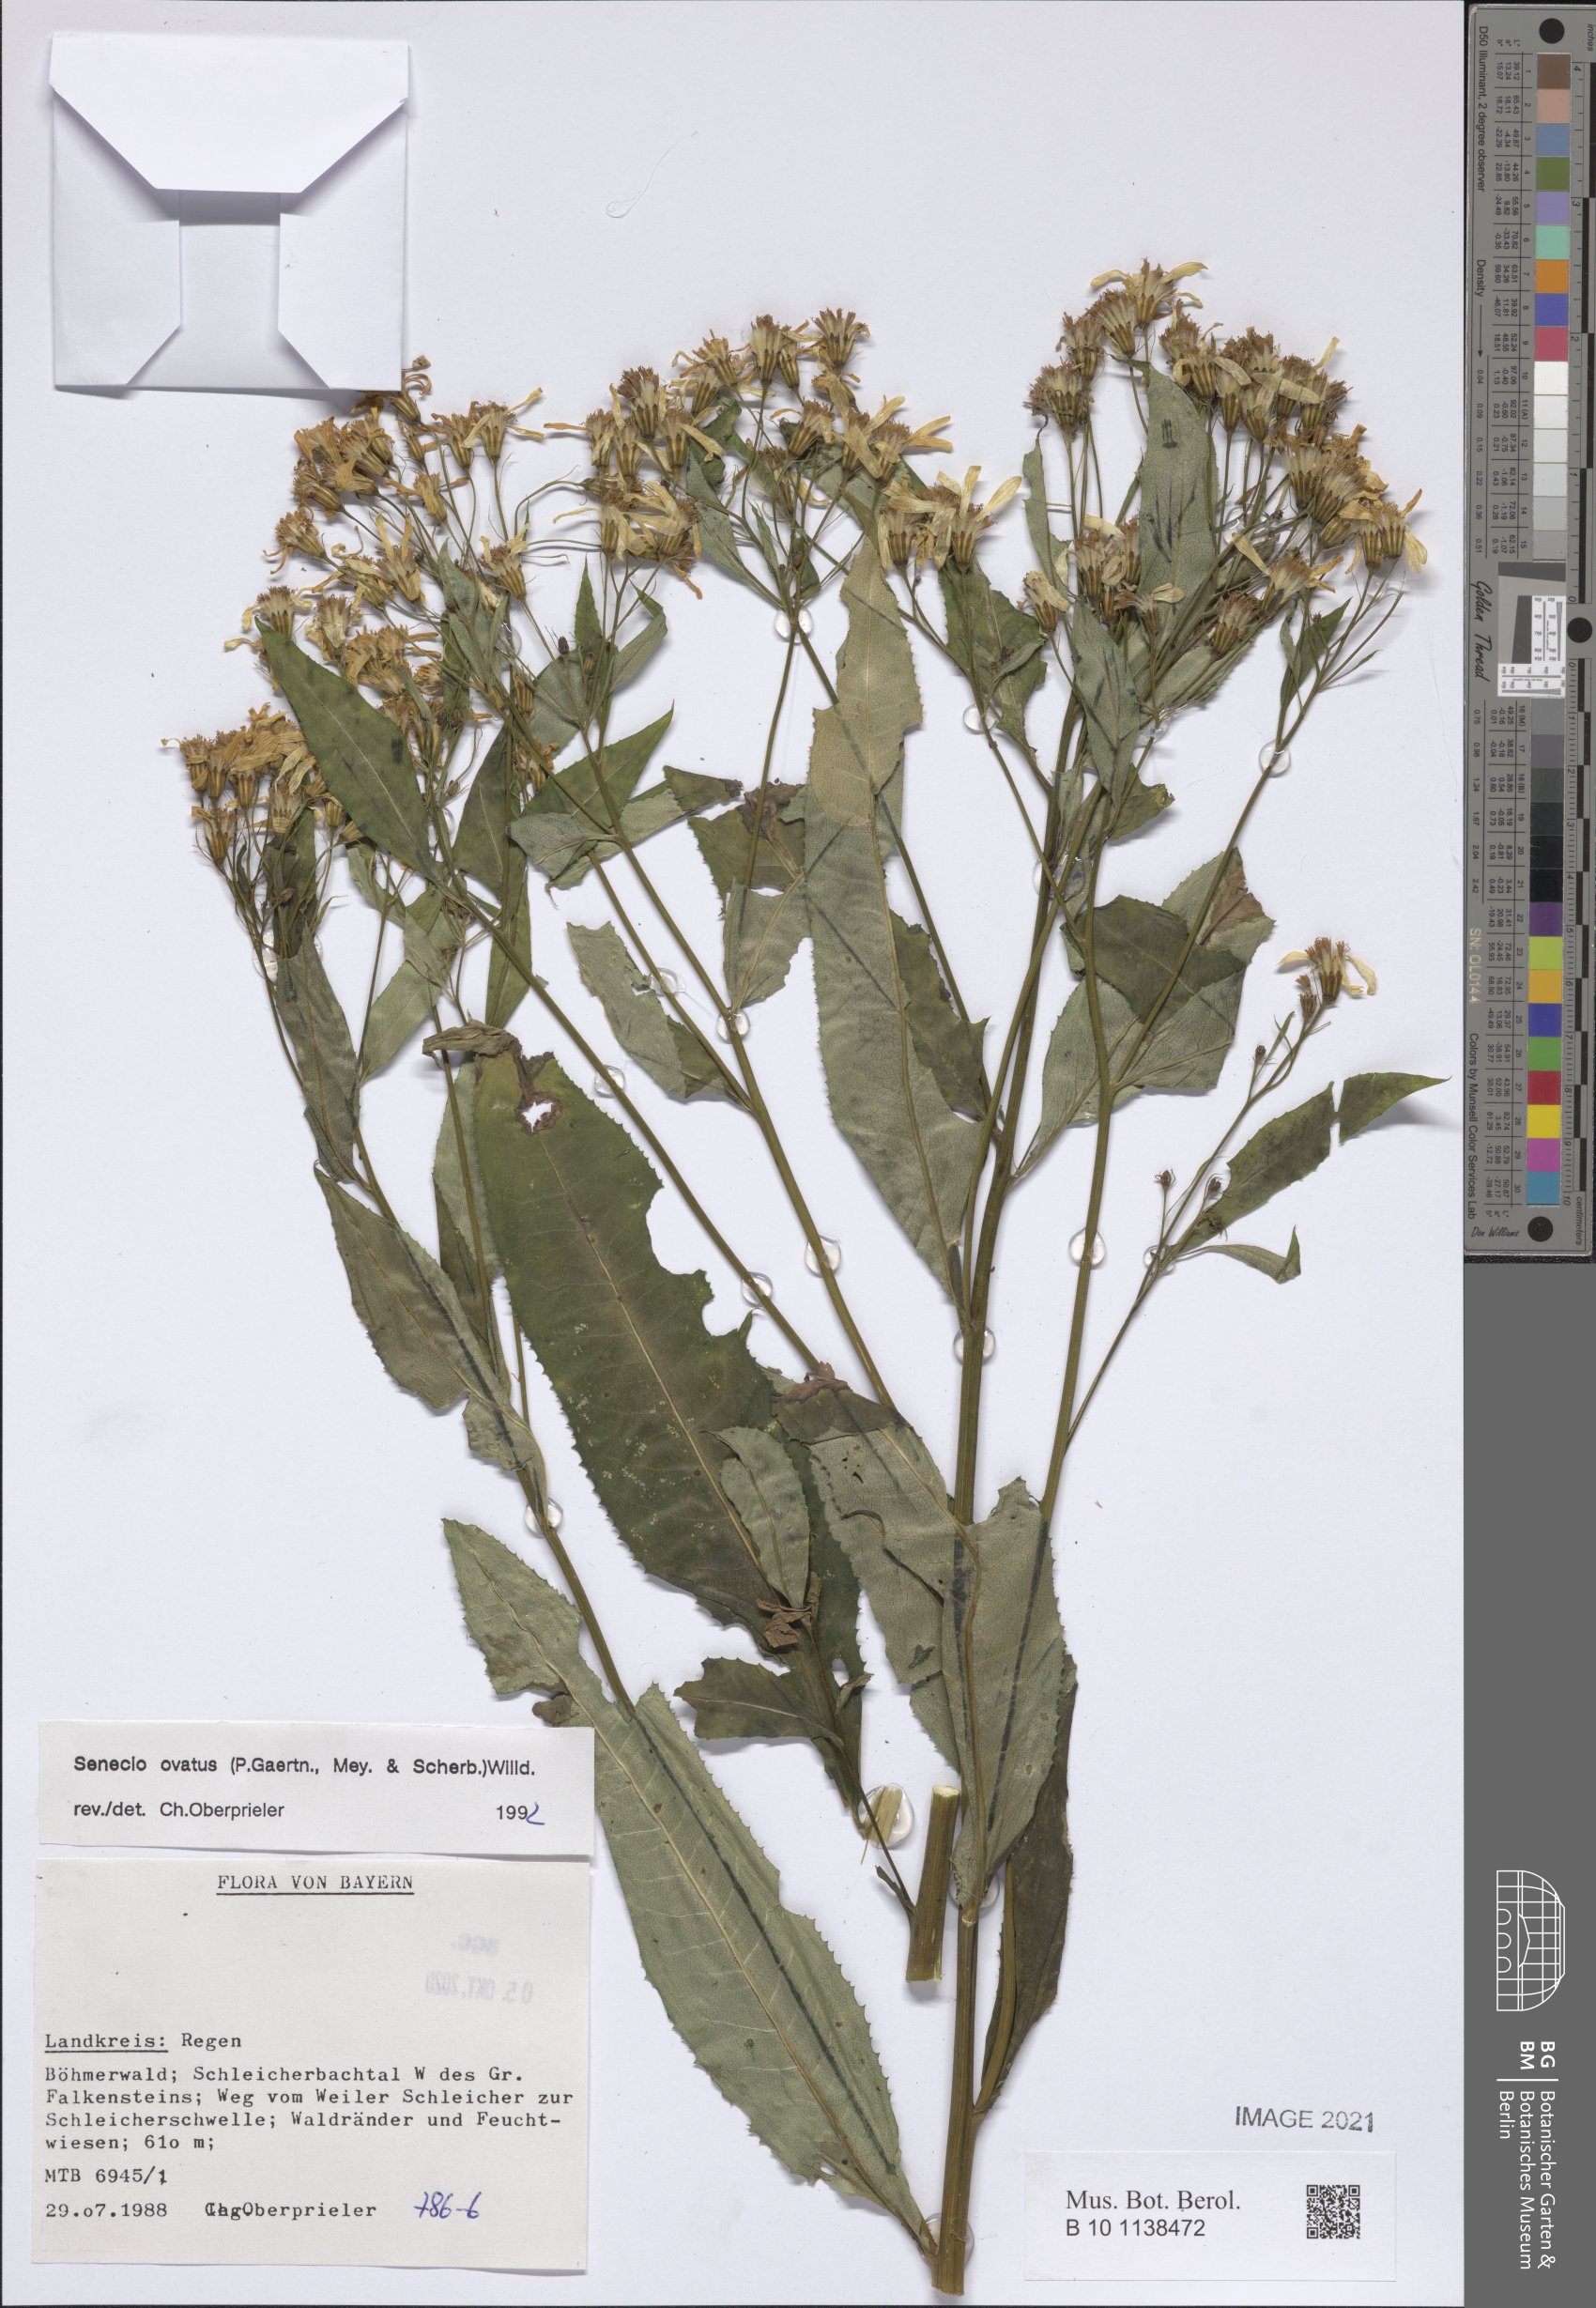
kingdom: Plantae
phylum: Tracheophyta
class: Magnoliopsida
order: Asterales
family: Asteraceae
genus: Senecio
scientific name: Senecio ovatus
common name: Wood ragwort
